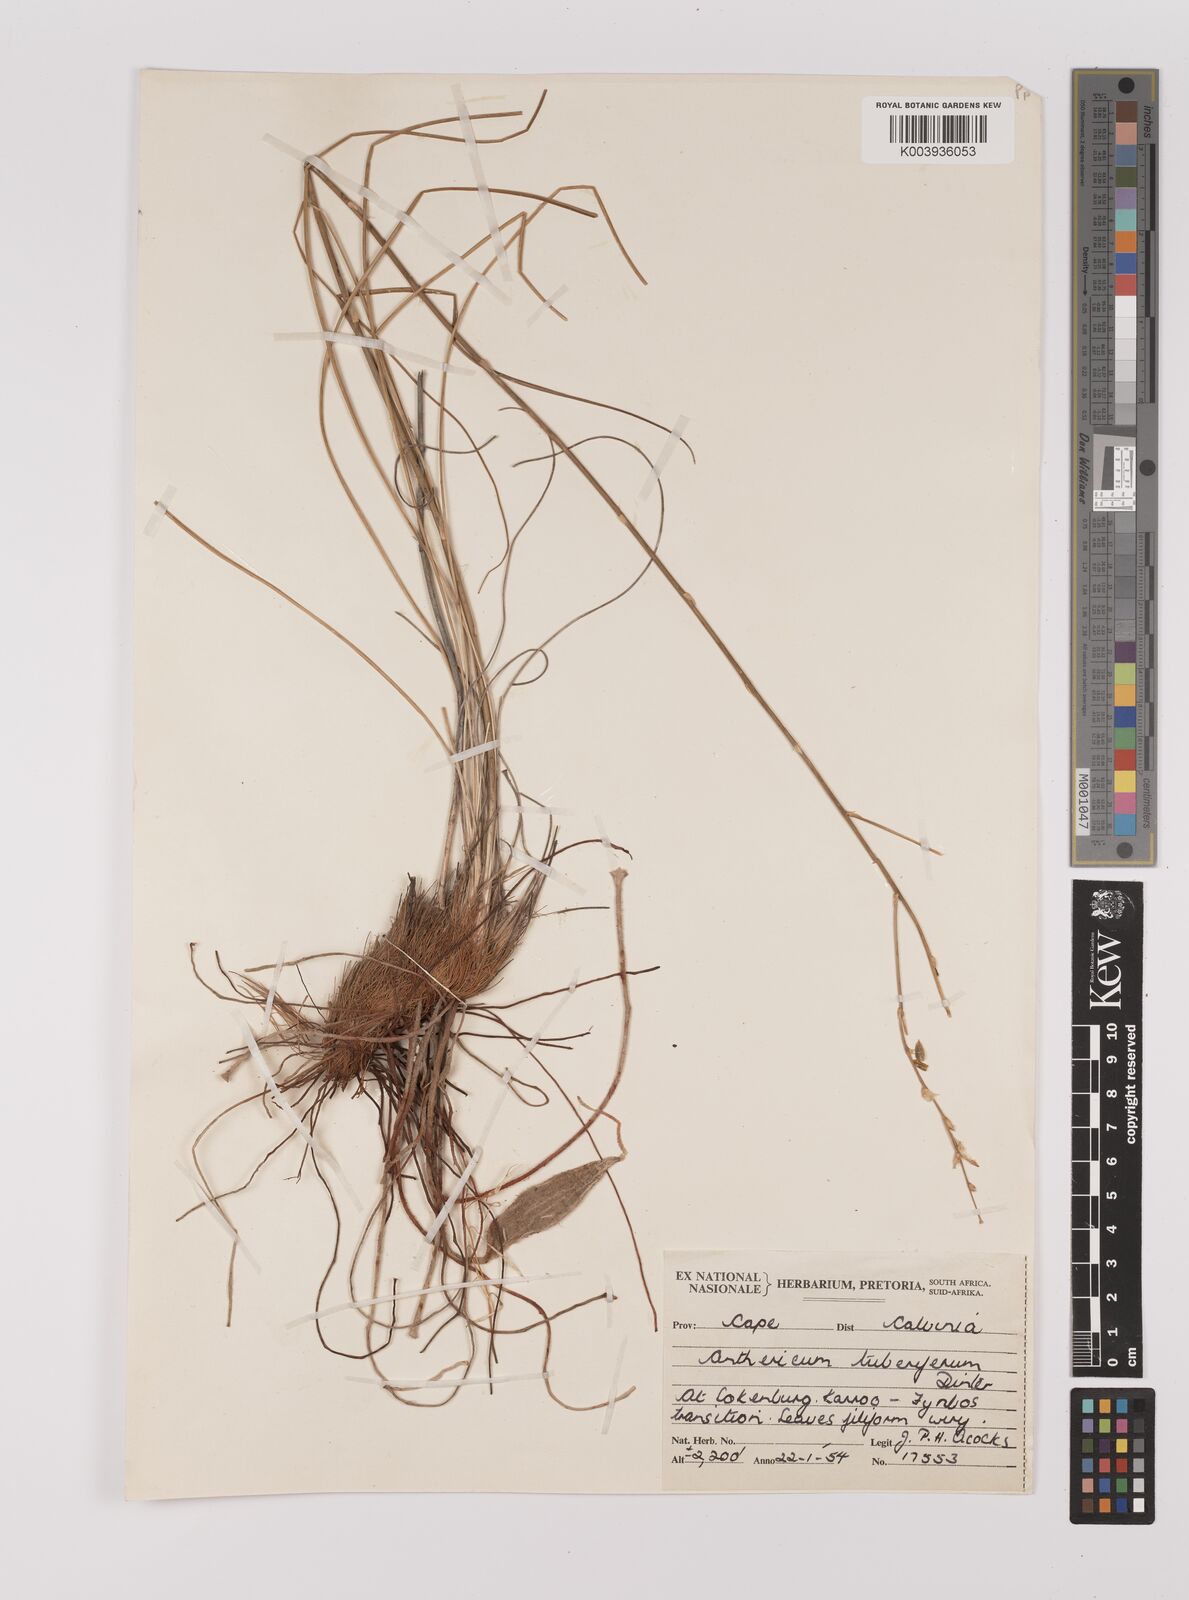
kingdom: Plantae
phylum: Tracheophyta
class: Liliopsida
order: Asparagales
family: Asparagaceae
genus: Chlorophytum
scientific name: Chlorophytum rangei
